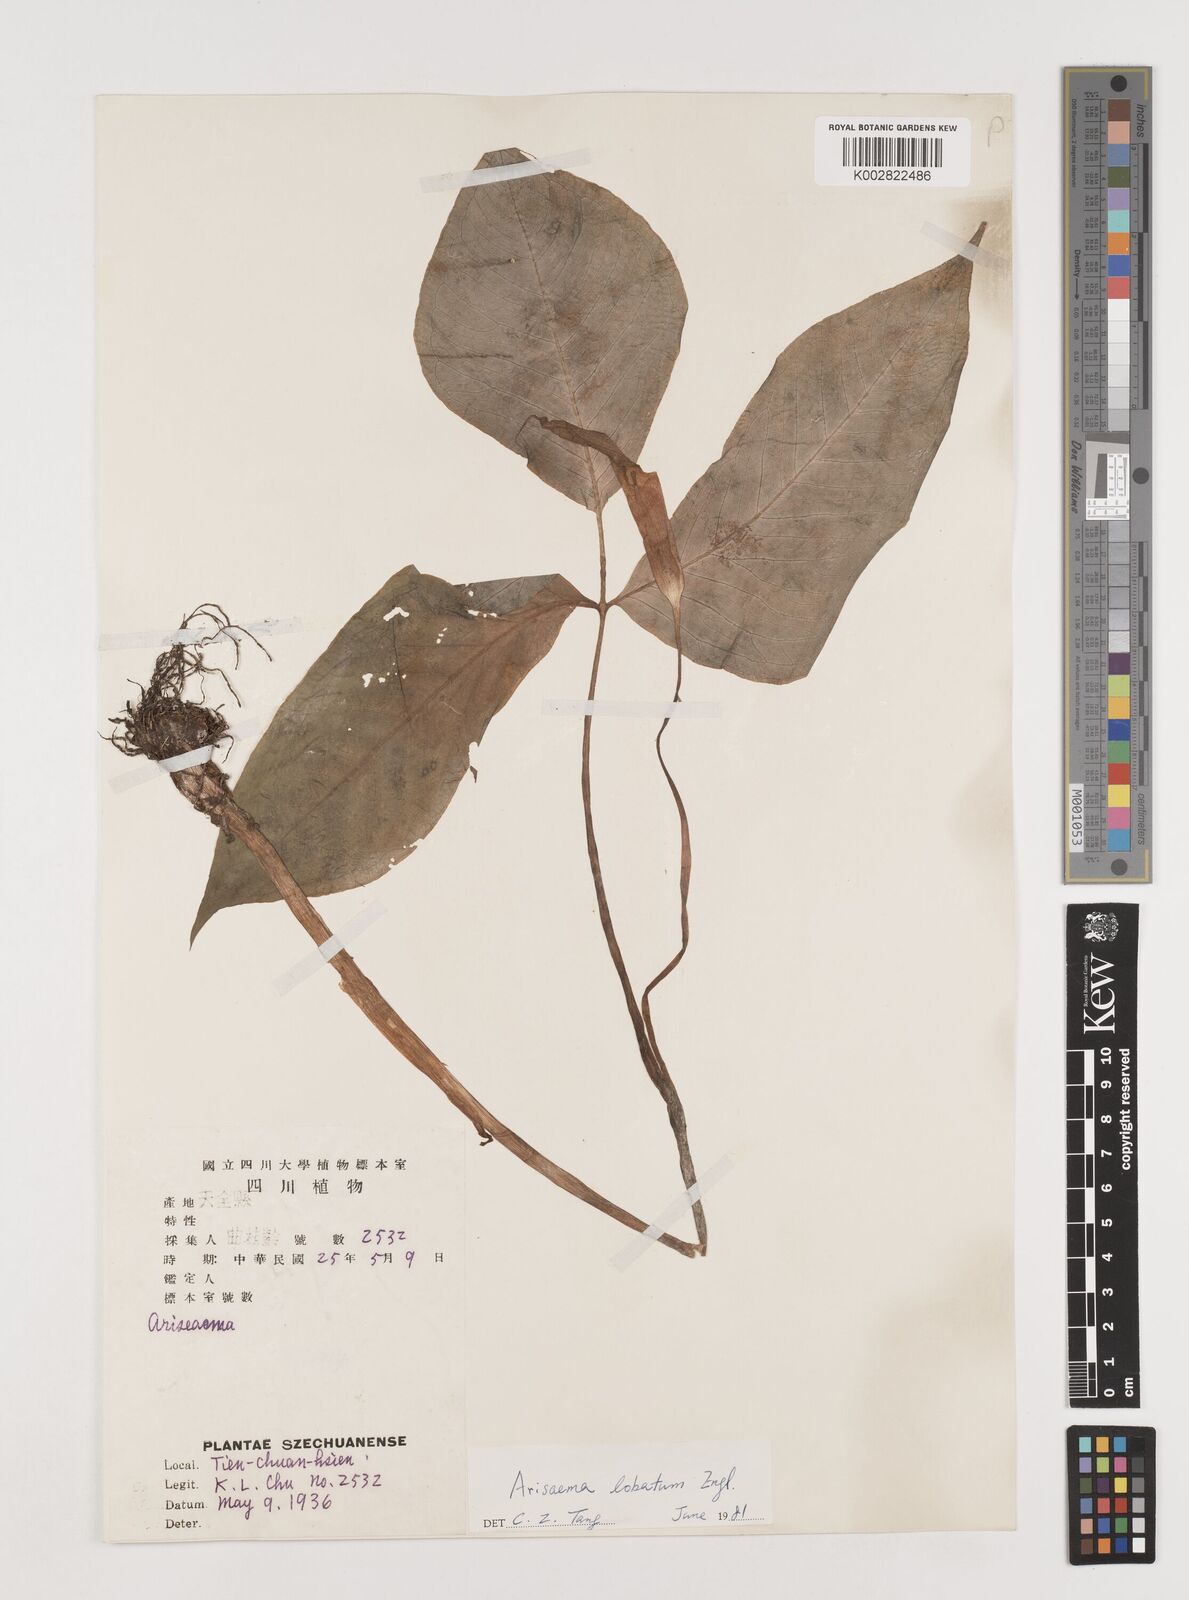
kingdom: Plantae
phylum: Tracheophyta
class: Liliopsida
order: Alismatales
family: Araceae
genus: Arisaema
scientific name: Arisaema lobatum
